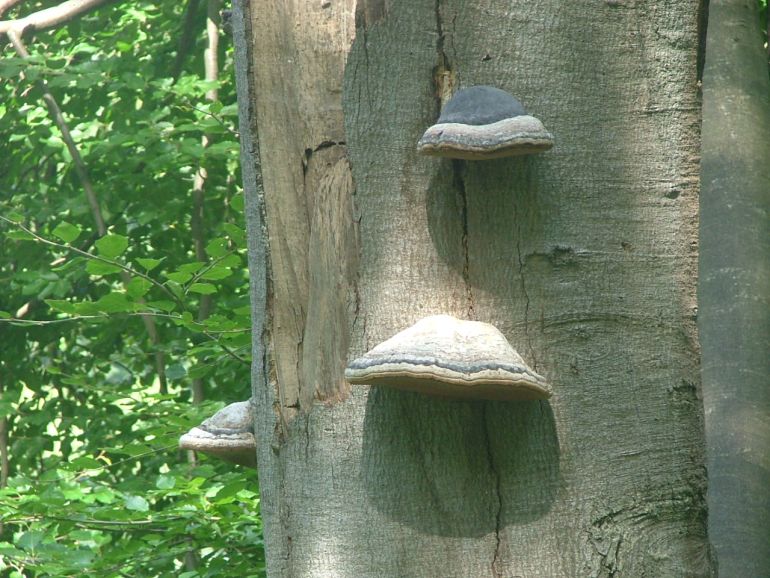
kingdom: Fungi
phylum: Basidiomycota
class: Agaricomycetes
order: Polyporales
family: Polyporaceae
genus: Fomes
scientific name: Fomes fomentarius
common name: tøndersvamp
